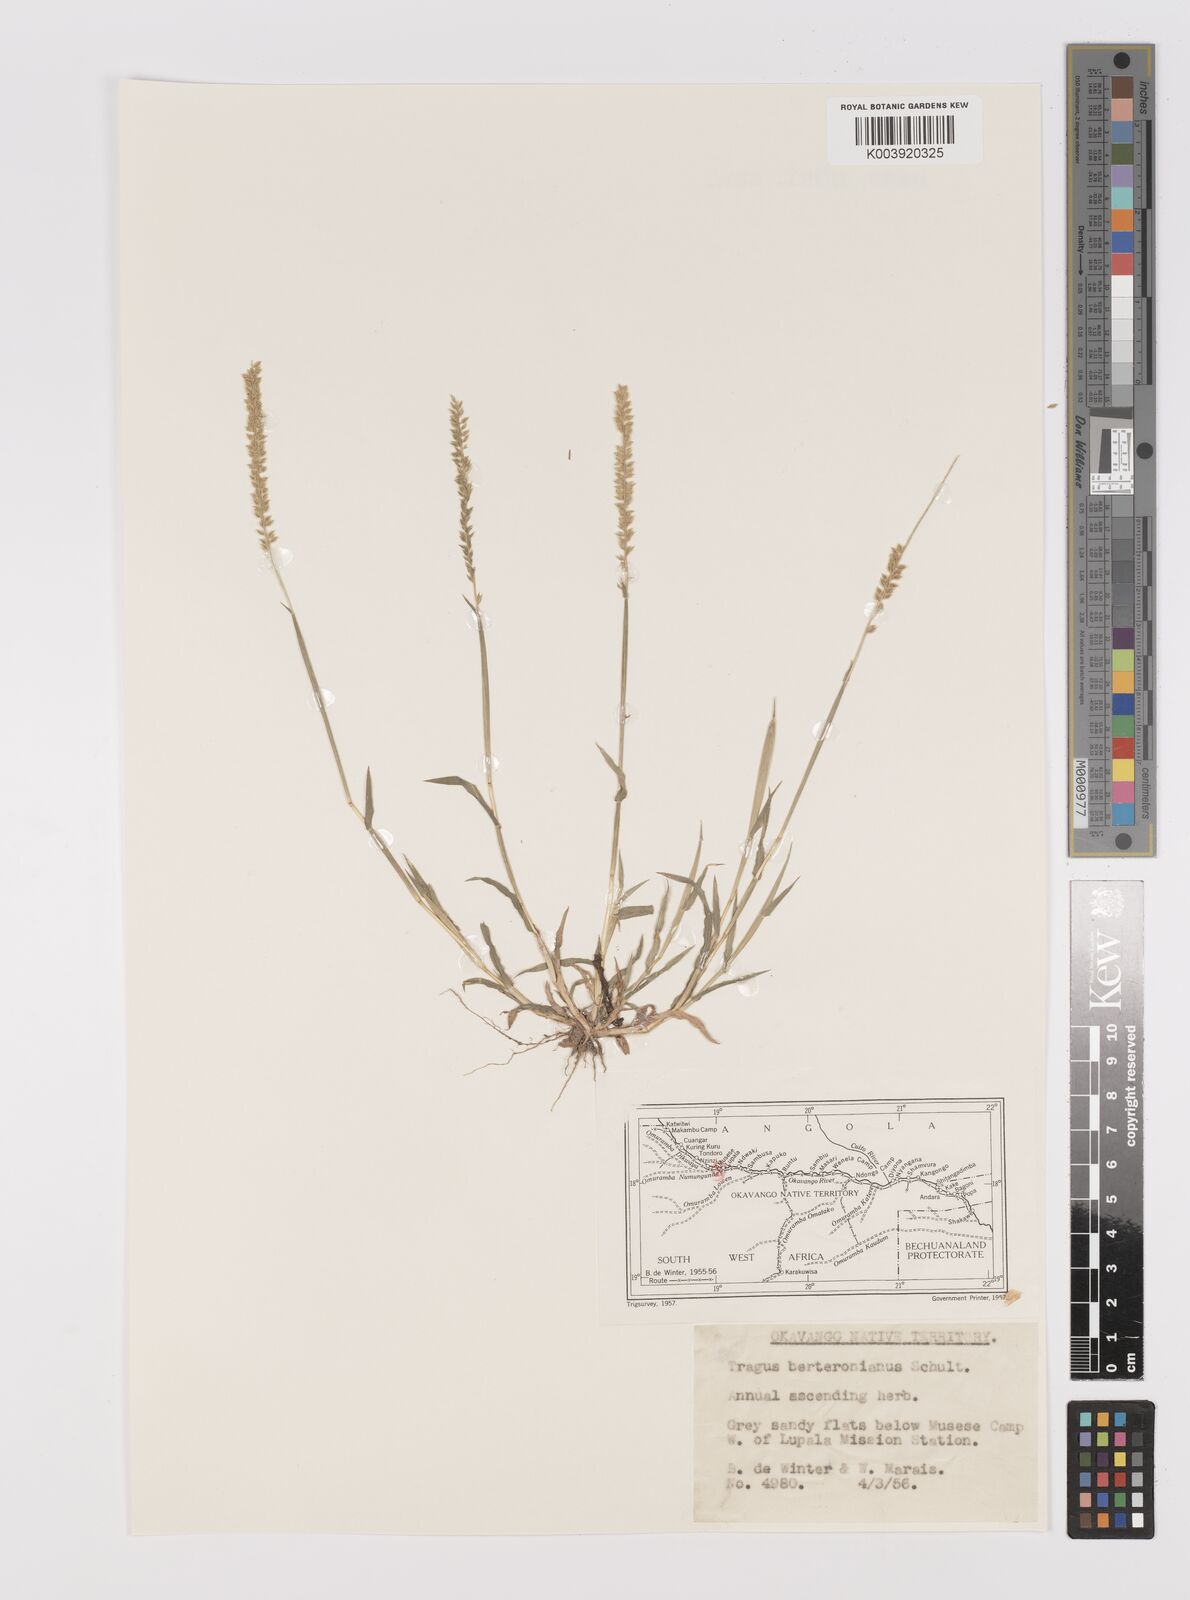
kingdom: Plantae
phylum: Tracheophyta
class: Liliopsida
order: Poales
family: Poaceae
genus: Tragus
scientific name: Tragus berteronianus
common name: African bur-grass
